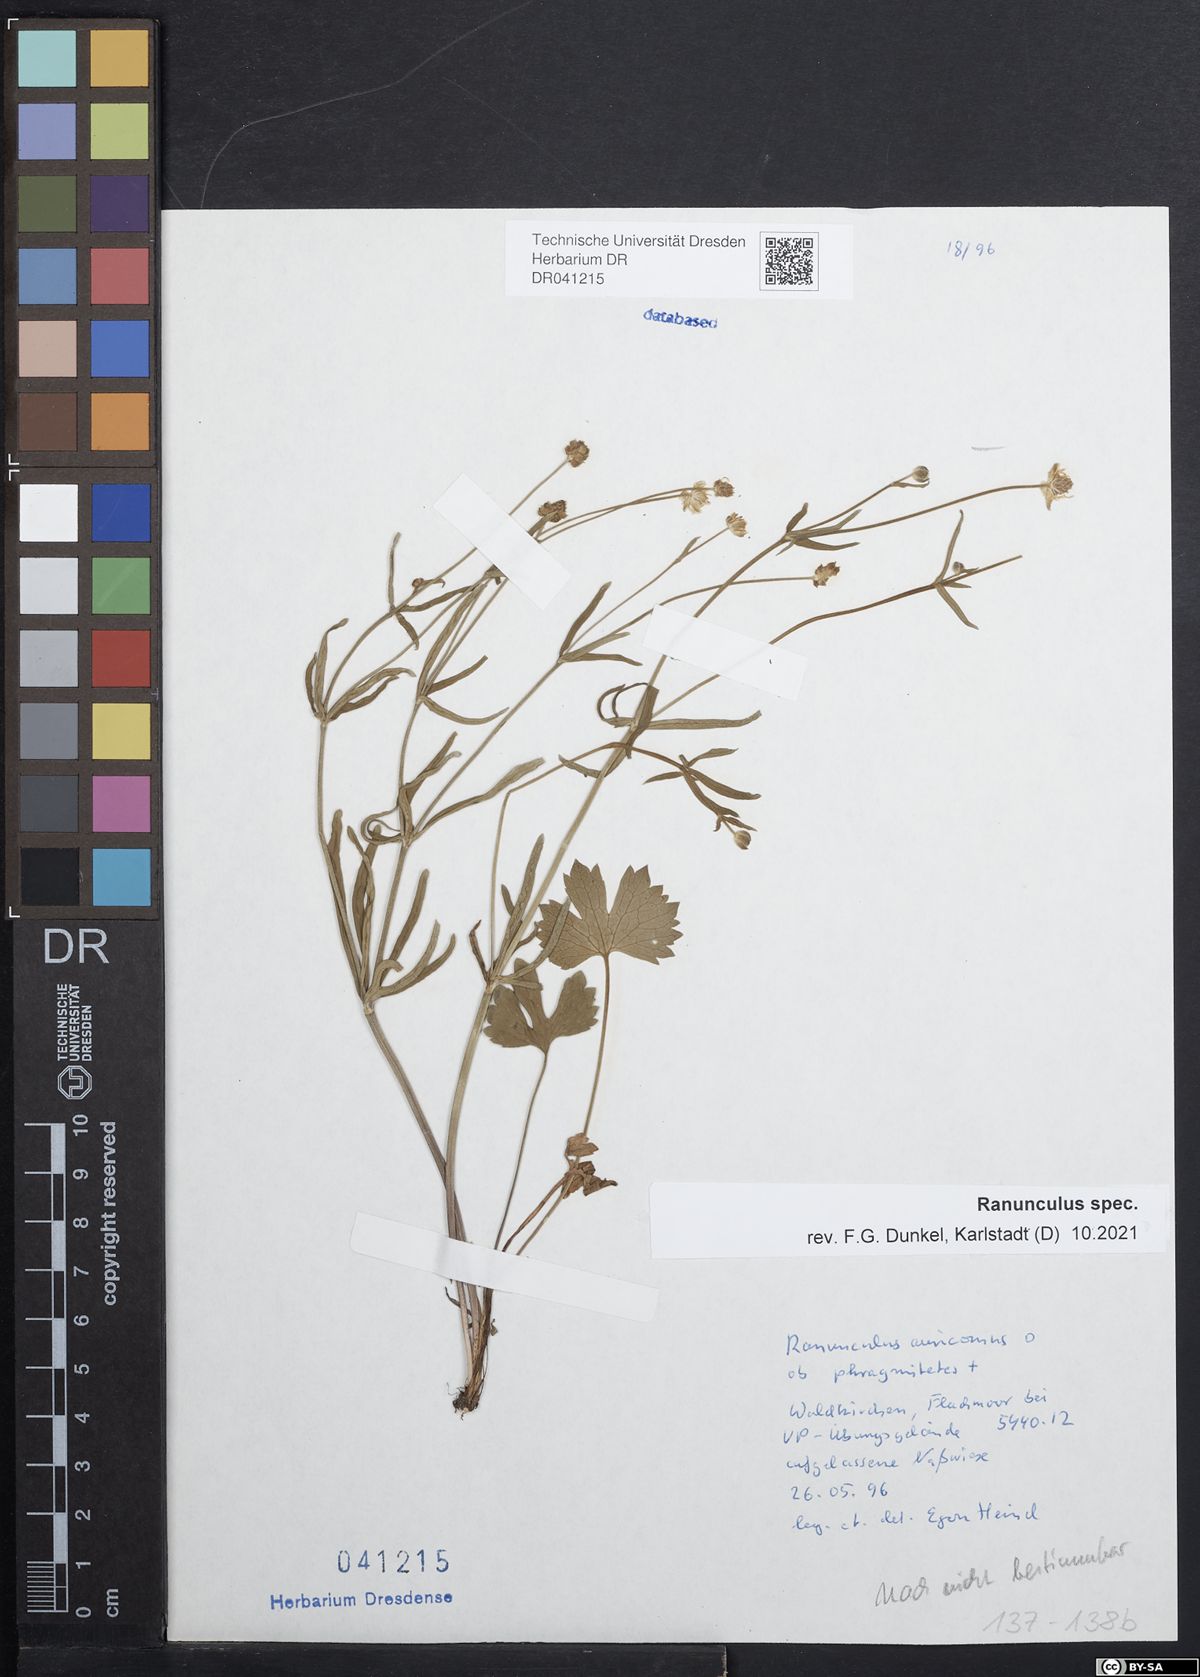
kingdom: Plantae
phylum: Tracheophyta
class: Magnoliopsida
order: Ranunculales
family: Ranunculaceae
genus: Ranunculus
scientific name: Ranunculus auricomus
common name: Goldilocks buttercup
